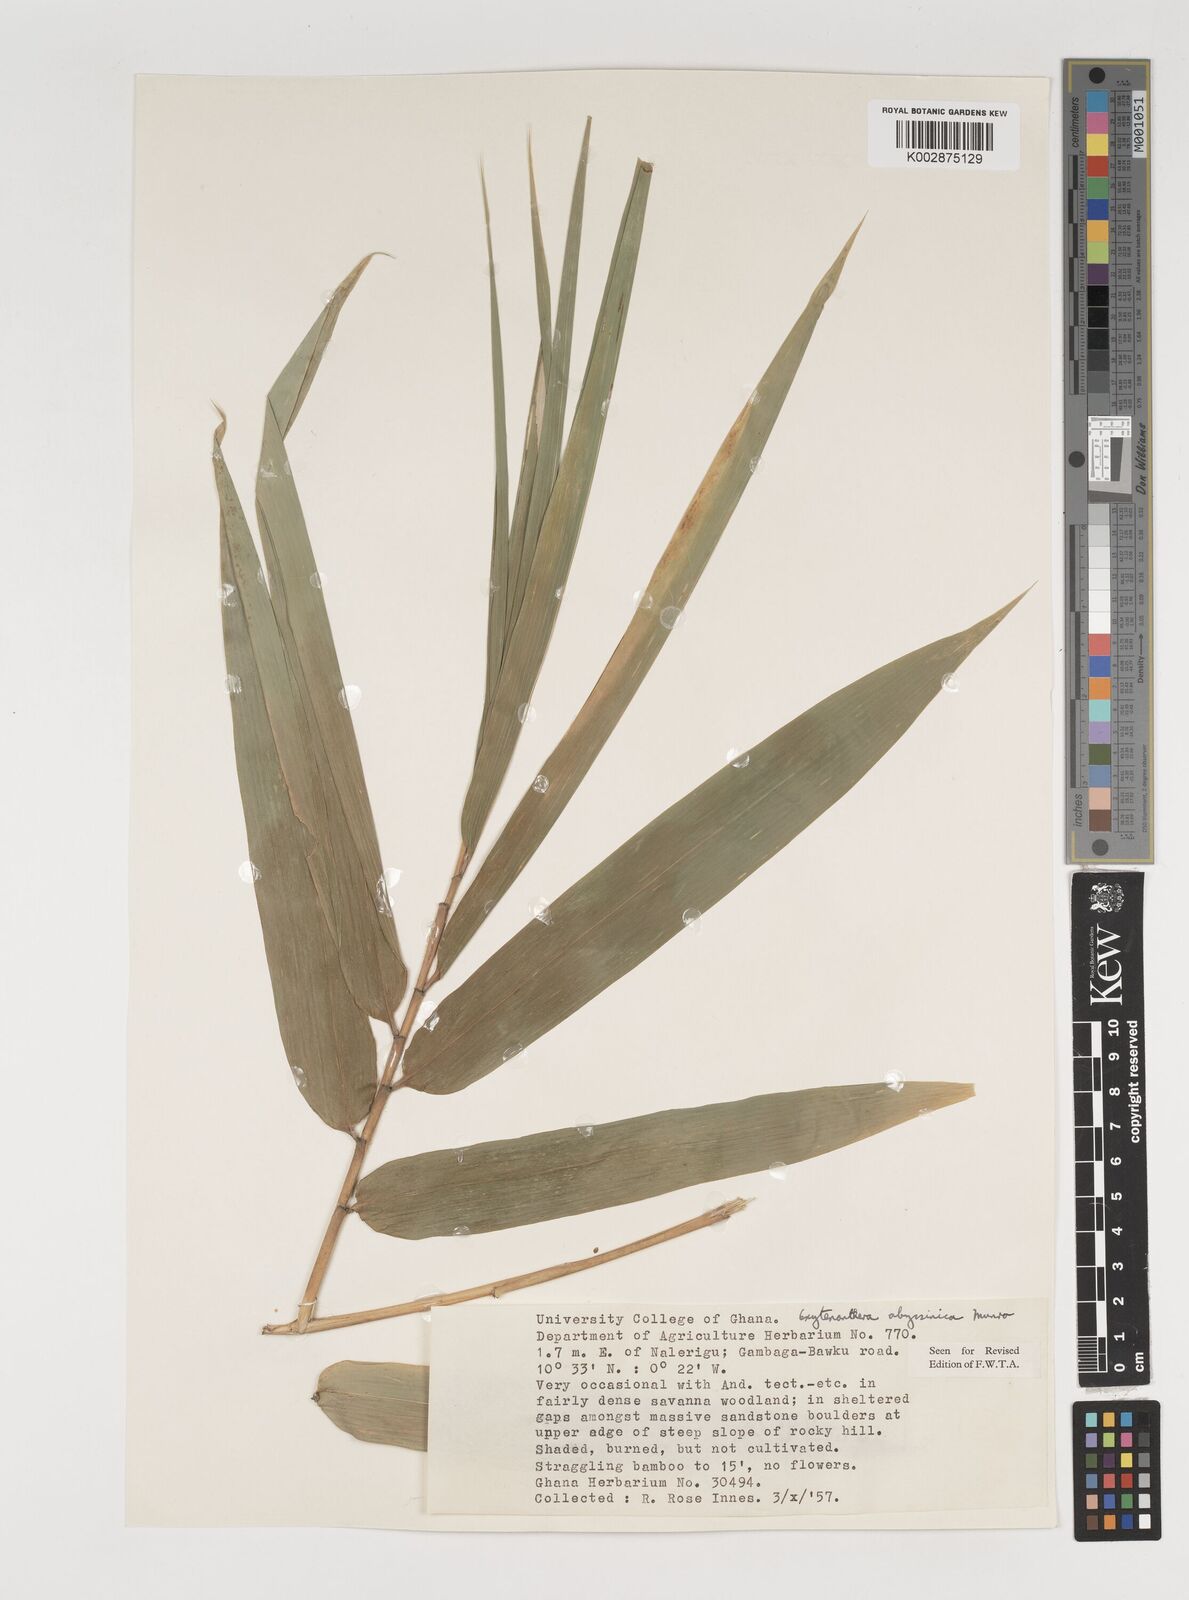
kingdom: Plantae
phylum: Tracheophyta
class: Liliopsida
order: Poales
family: Poaceae
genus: Oxytenanthera
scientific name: Oxytenanthera abyssinica
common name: Wine bamboo
